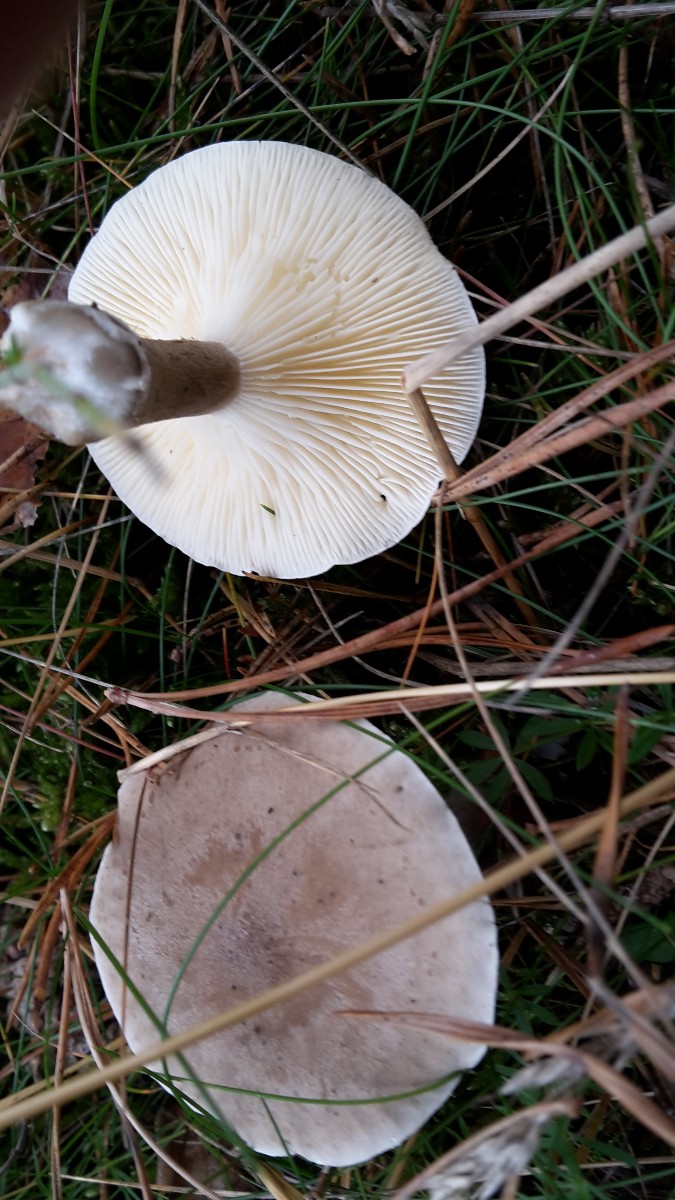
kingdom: Fungi
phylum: Basidiomycota
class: Agaricomycetes
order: Agaricales
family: Hygrophoraceae
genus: Ampulloclitocybe
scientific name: Ampulloclitocybe clavipes
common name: køllefod
